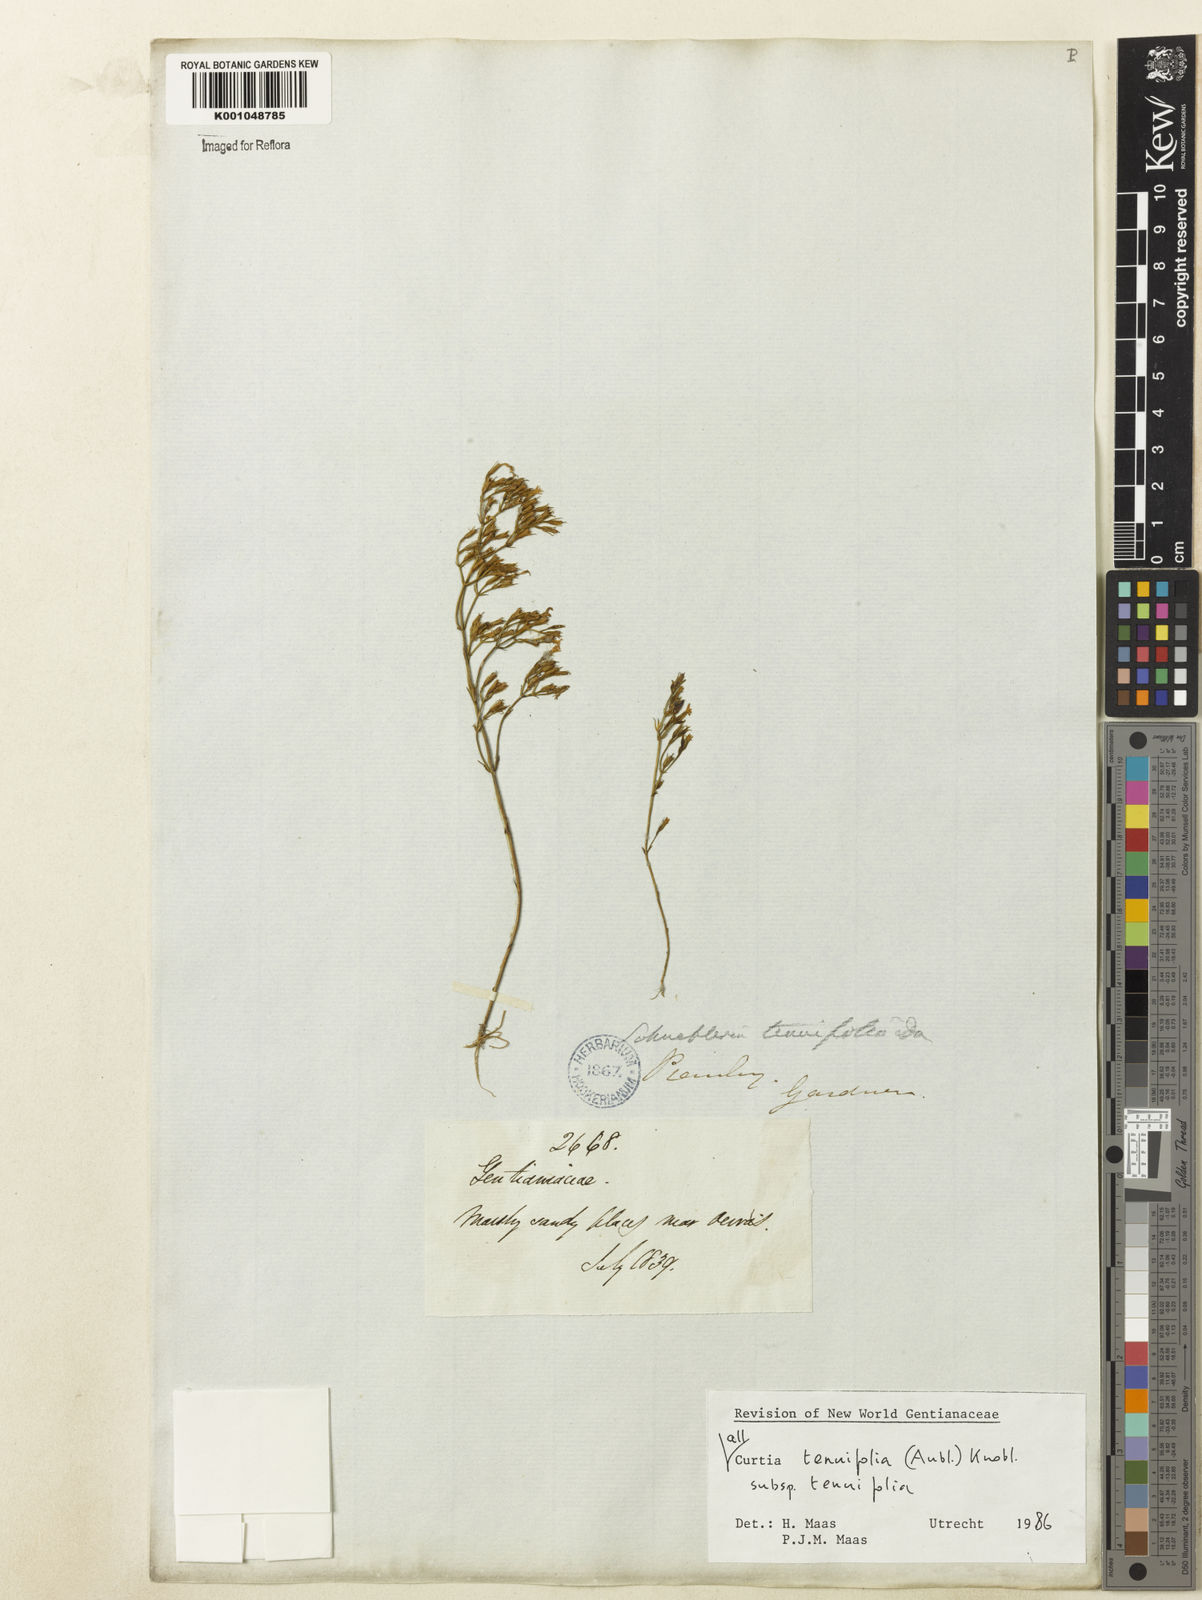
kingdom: Plantae
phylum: Tracheophyta
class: Magnoliopsida
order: Gentianales
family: Gentianaceae
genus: Curtia
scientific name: Curtia tenuifolia
